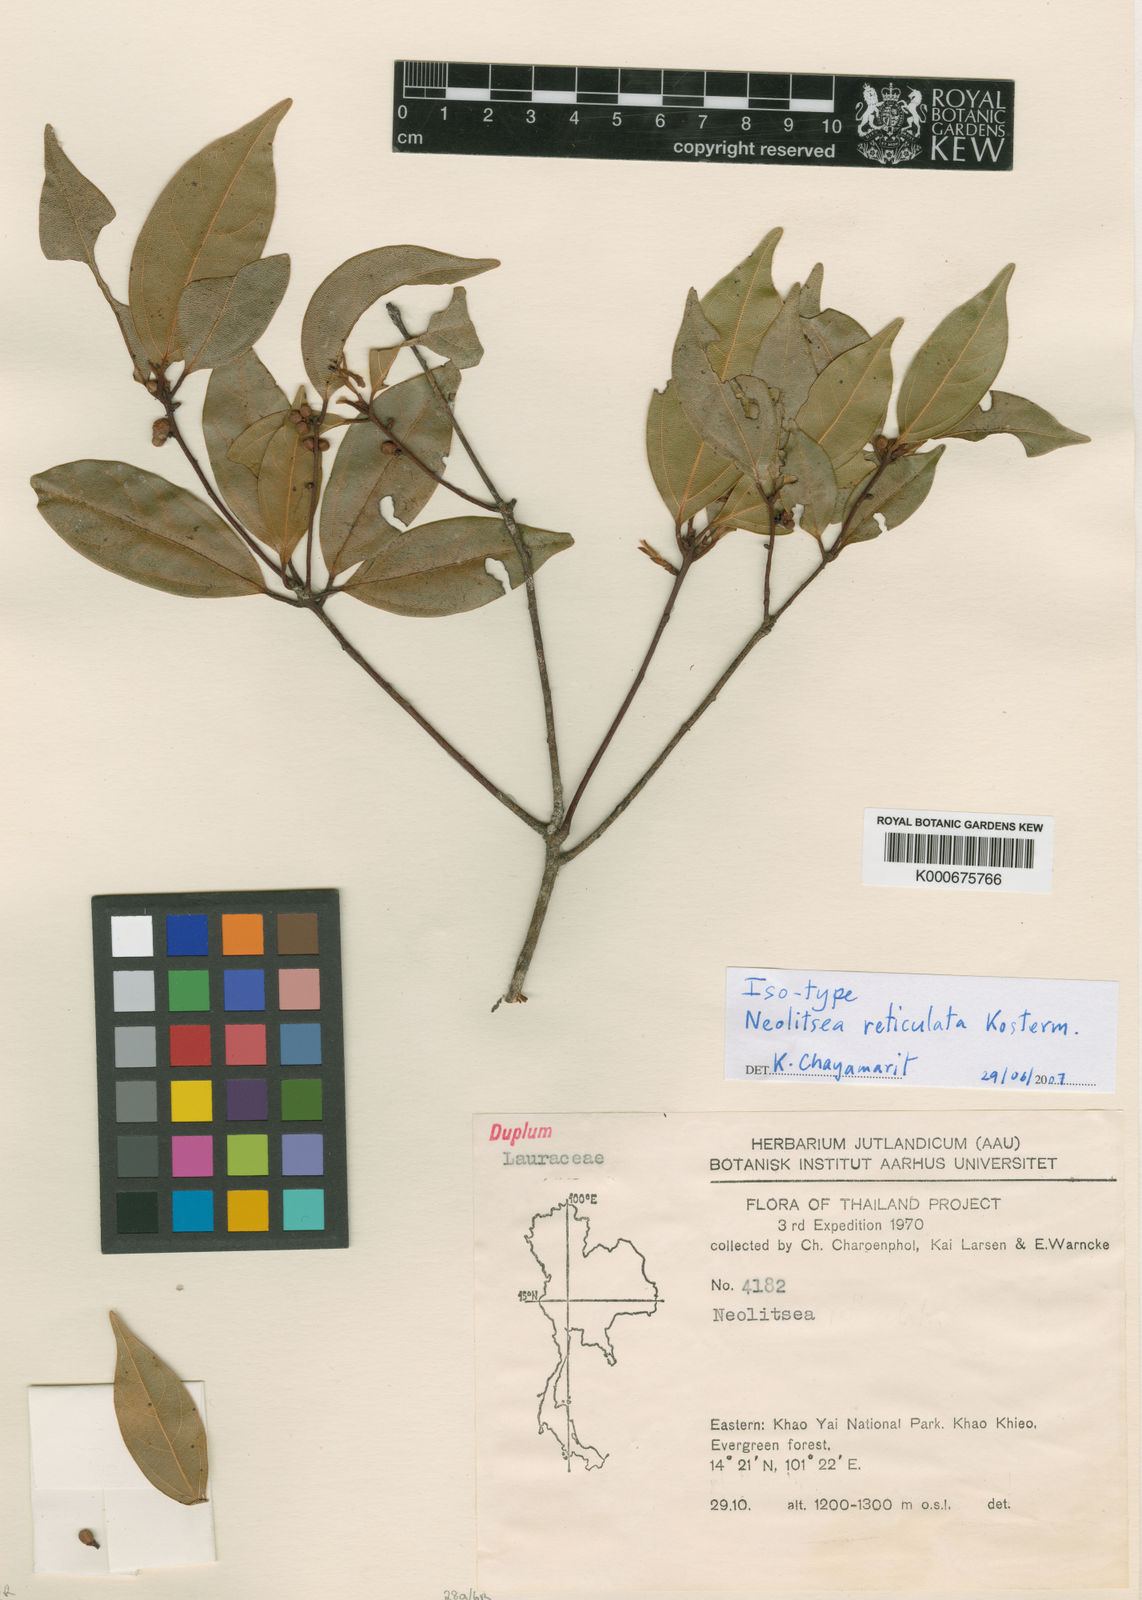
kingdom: Plantae
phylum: Tracheophyta
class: Magnoliopsida
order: Laurales
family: Lauraceae
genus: Neolitsea
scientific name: Neolitsea reticulata
